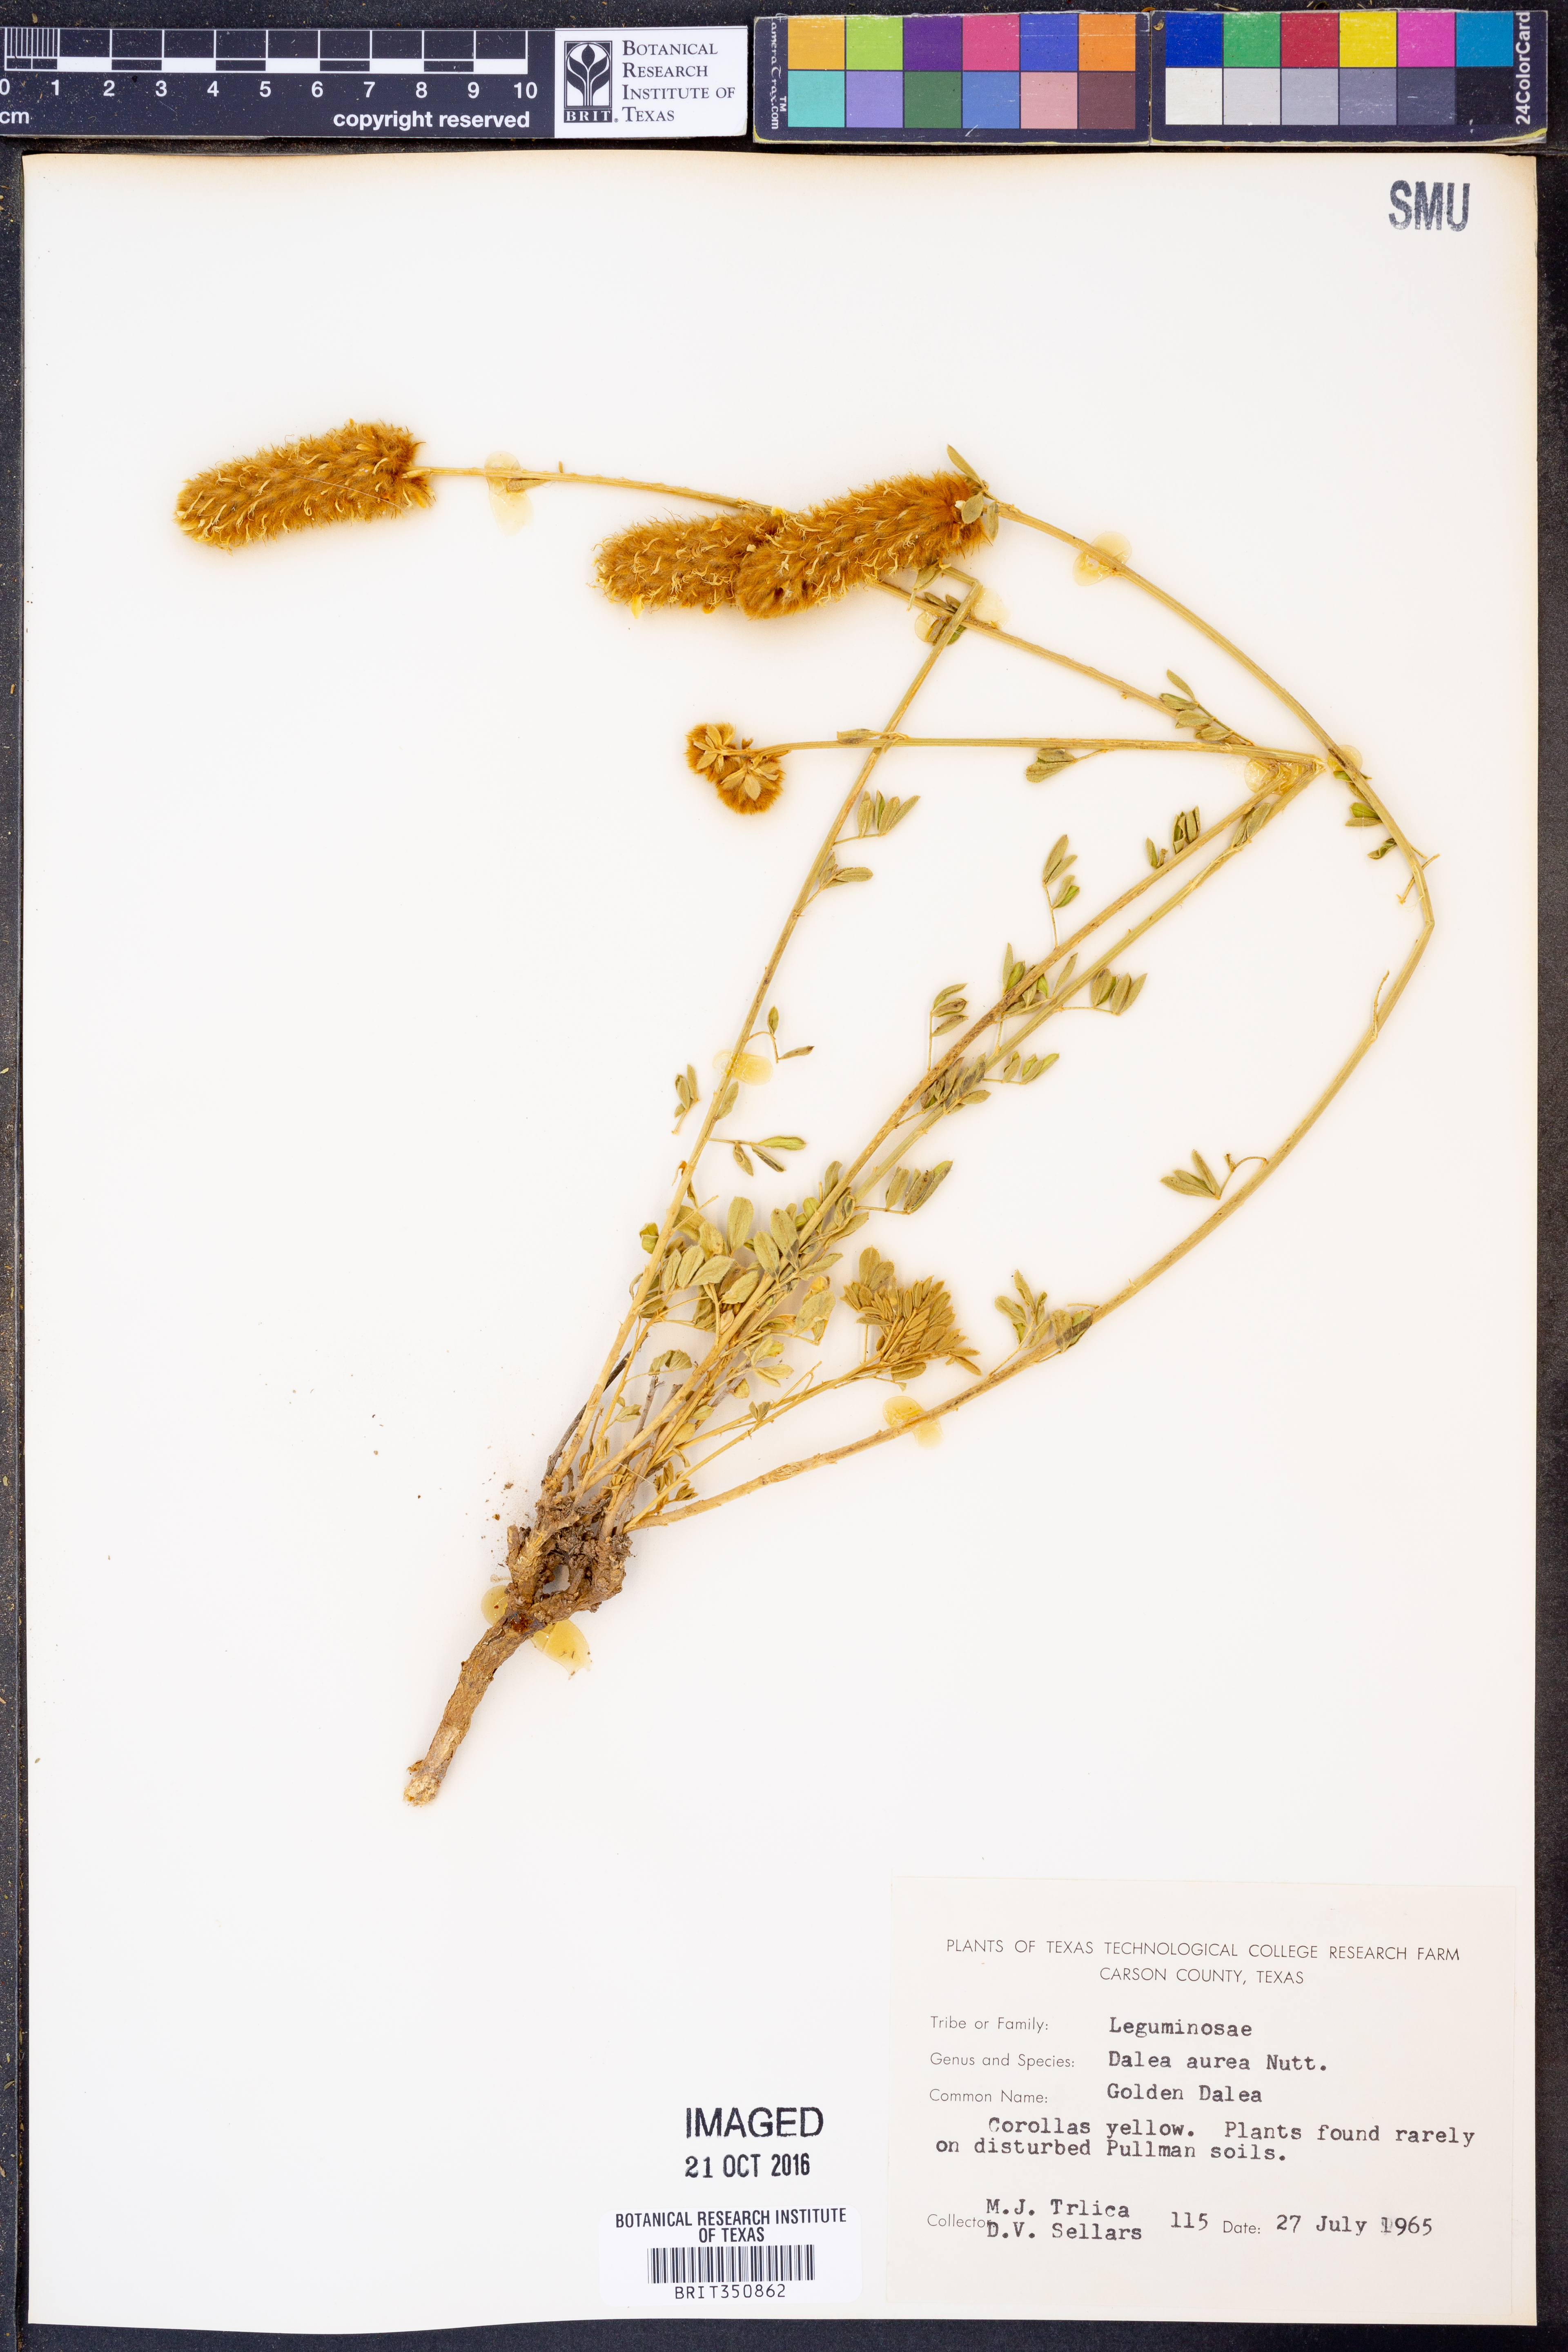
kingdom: Plantae
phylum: Tracheophyta
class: Magnoliopsida
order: Fabales
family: Fabaceae
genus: Dalea
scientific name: Dalea aurea
